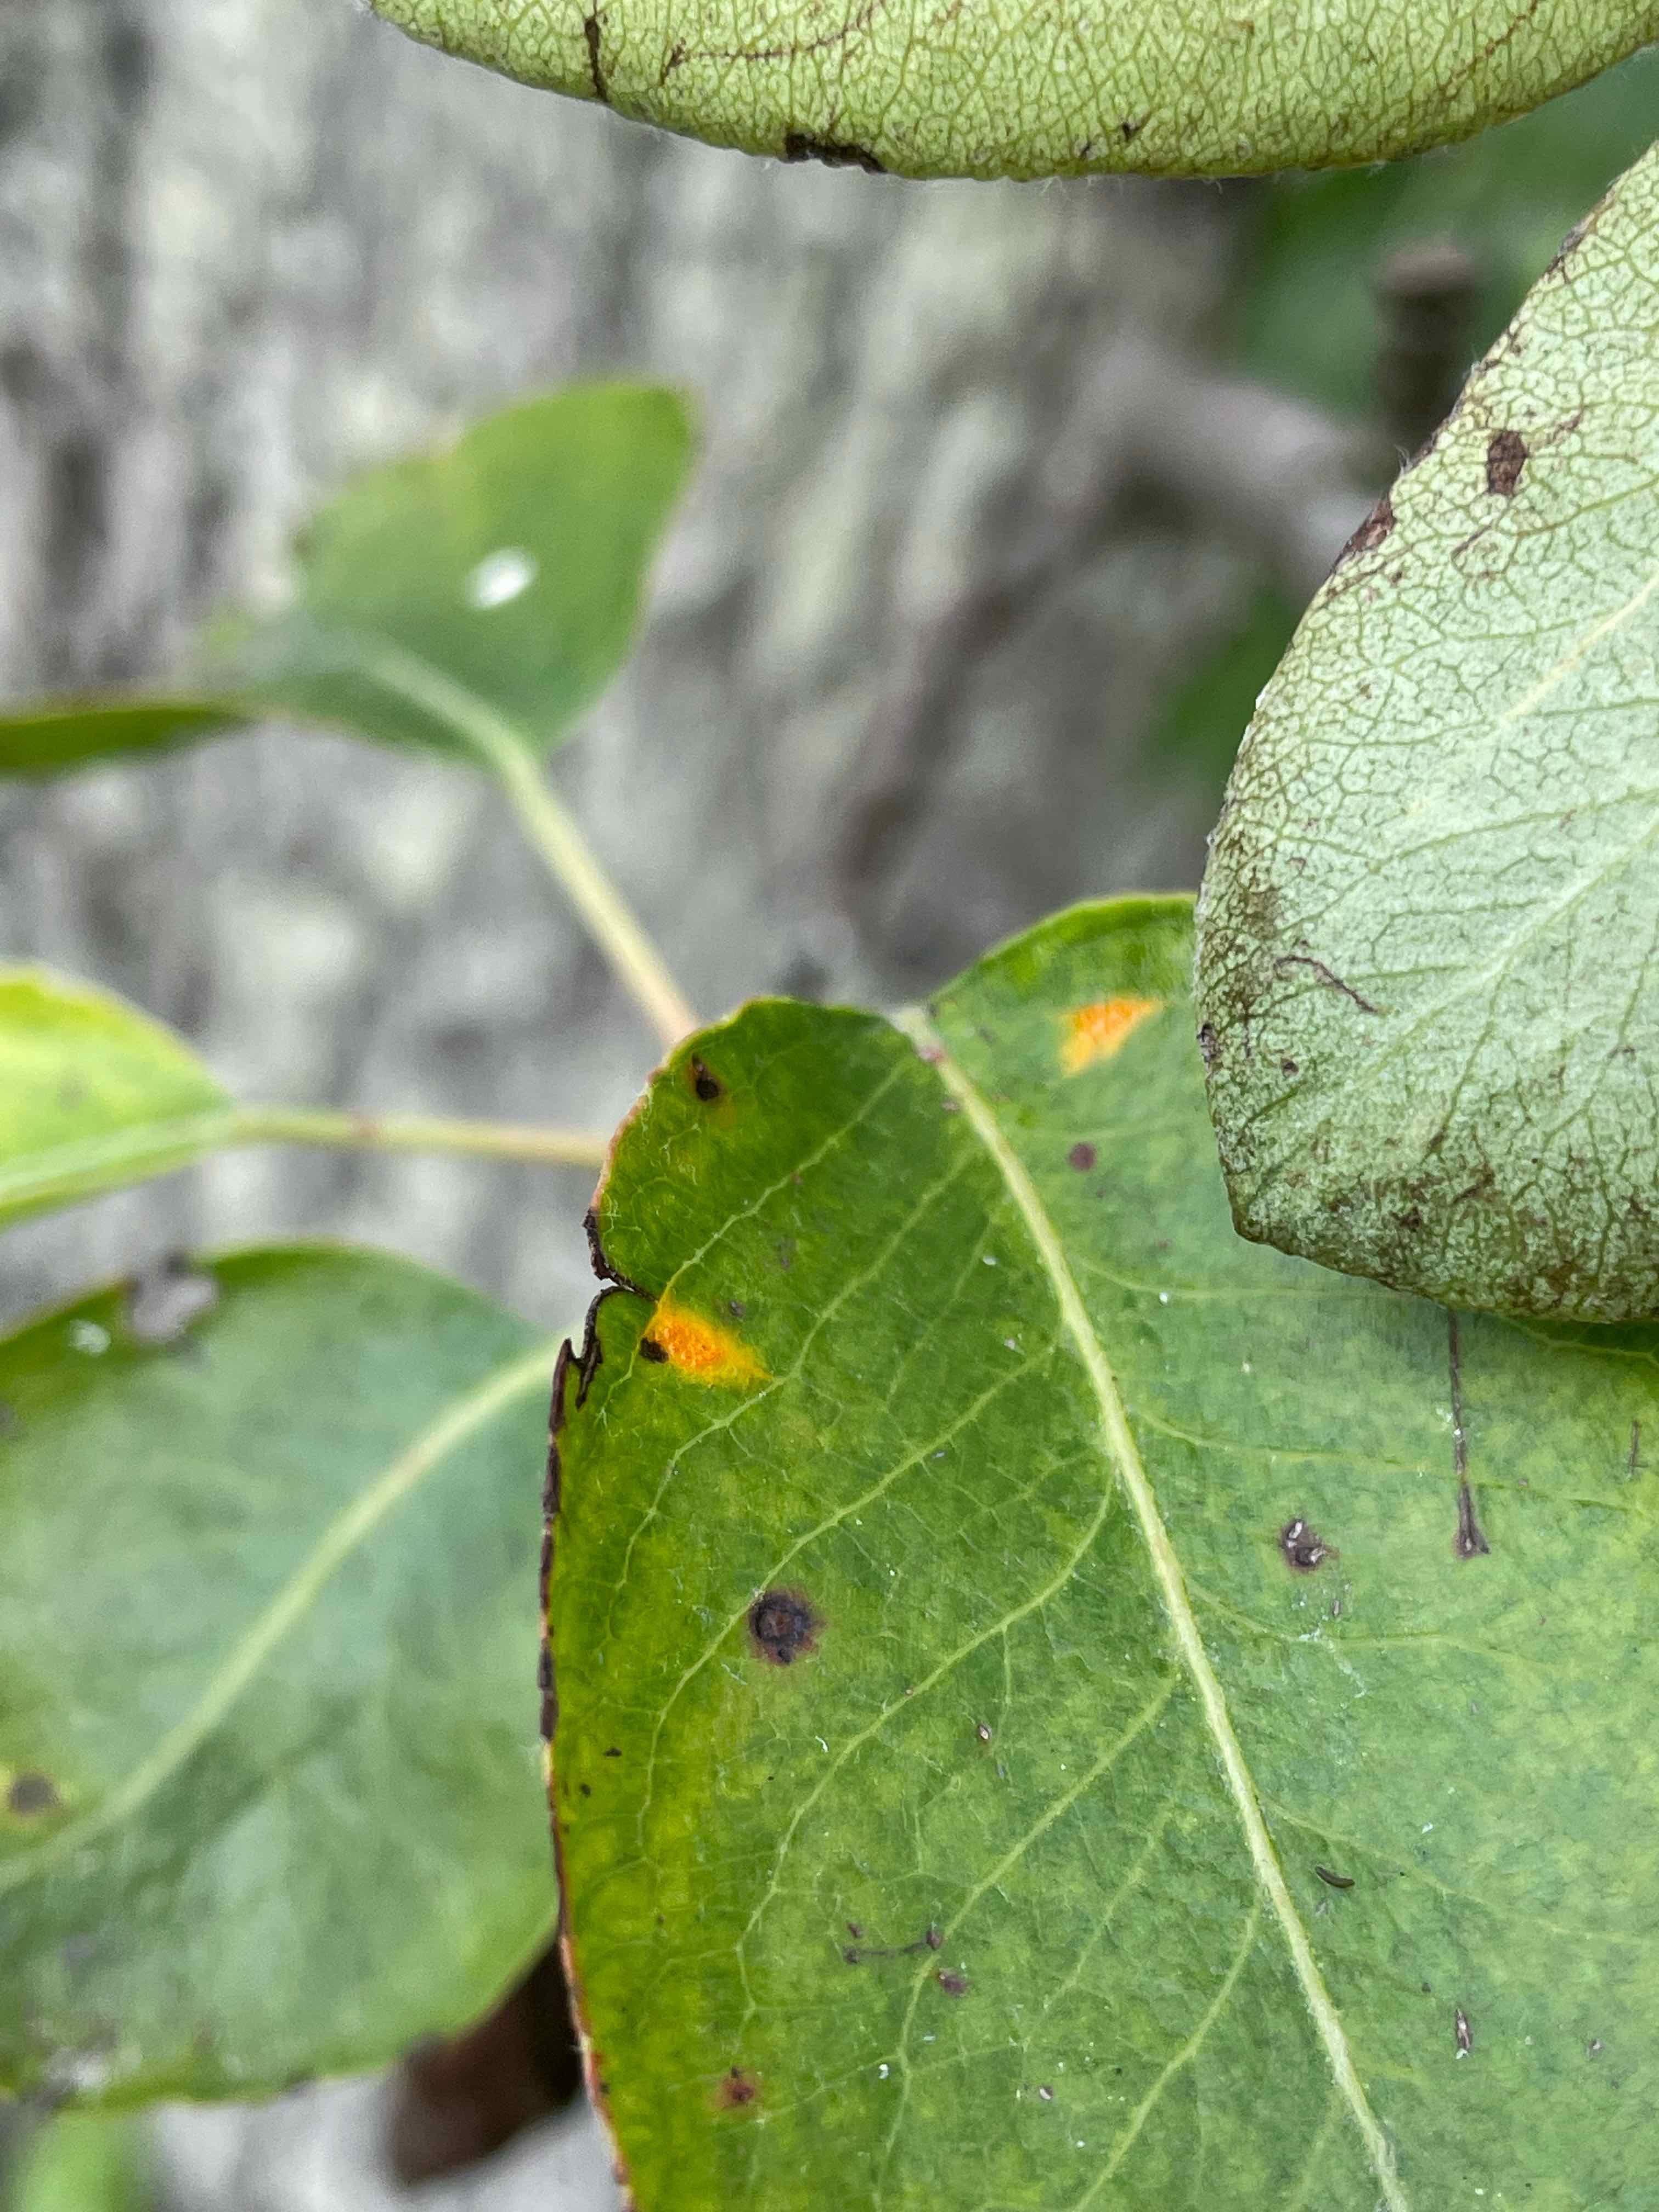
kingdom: Fungi
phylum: Basidiomycota
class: Pucciniomycetes
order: Pucciniales
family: Gymnosporangiaceae
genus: Gymnosporangium
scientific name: Gymnosporangium sabinae
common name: pæregitter-bævrerust
